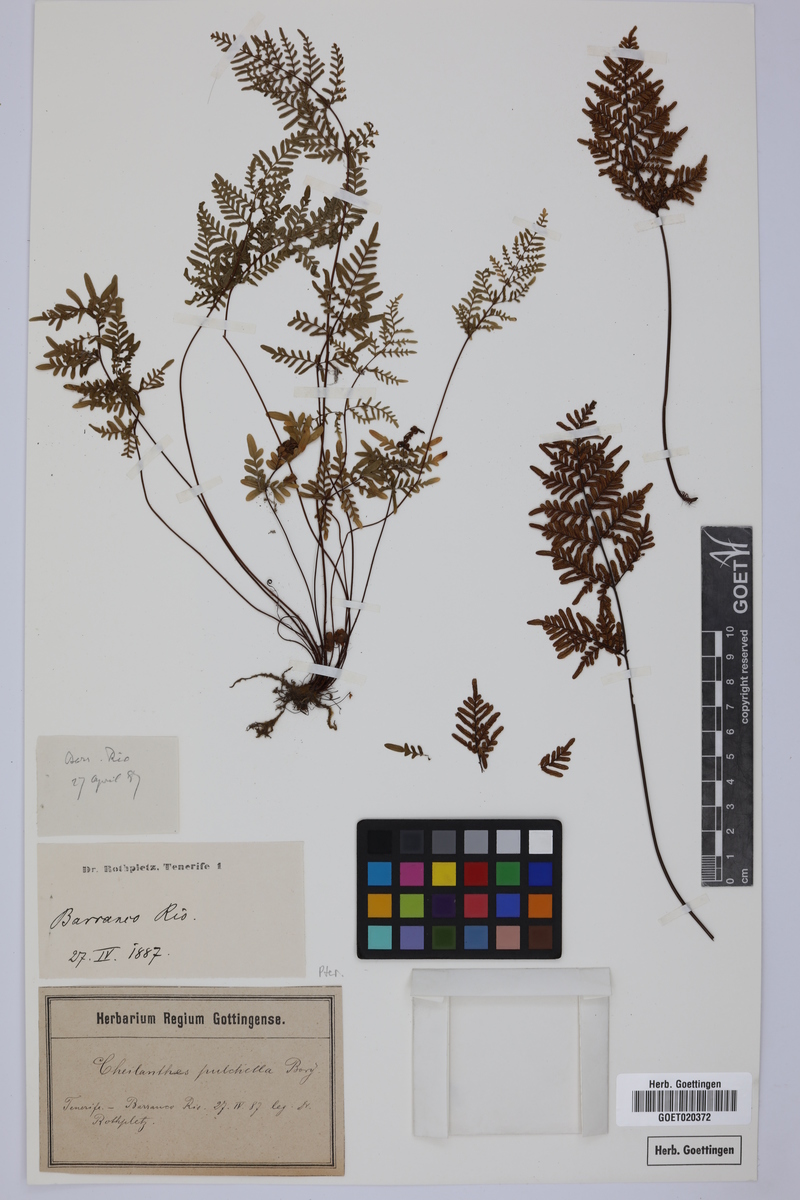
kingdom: Plantae
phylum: Tracheophyta
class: Polypodiopsida
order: Polypodiales
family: Pteridaceae
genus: Oeosporangium
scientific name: Oeosporangium pulchellum
